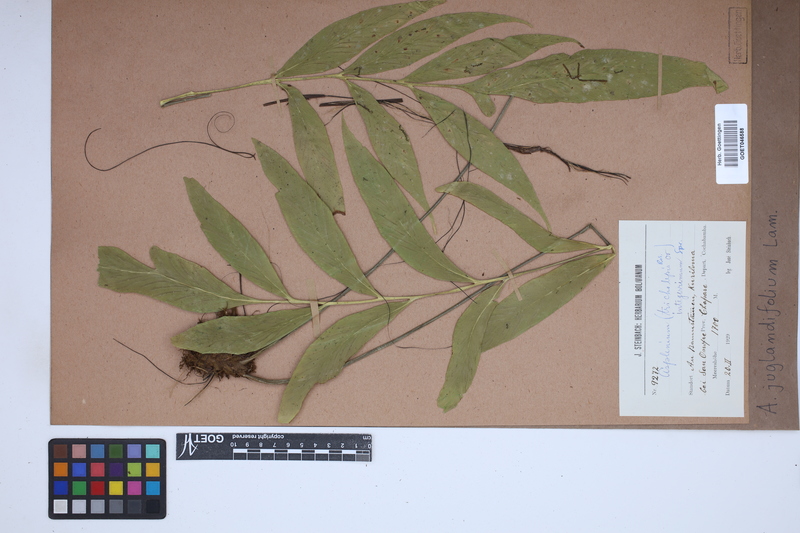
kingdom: Plantae
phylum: Tracheophyta
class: Polypodiopsida
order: Polypodiales
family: Aspleniaceae
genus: Asplenium
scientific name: Asplenium juglandifolium
